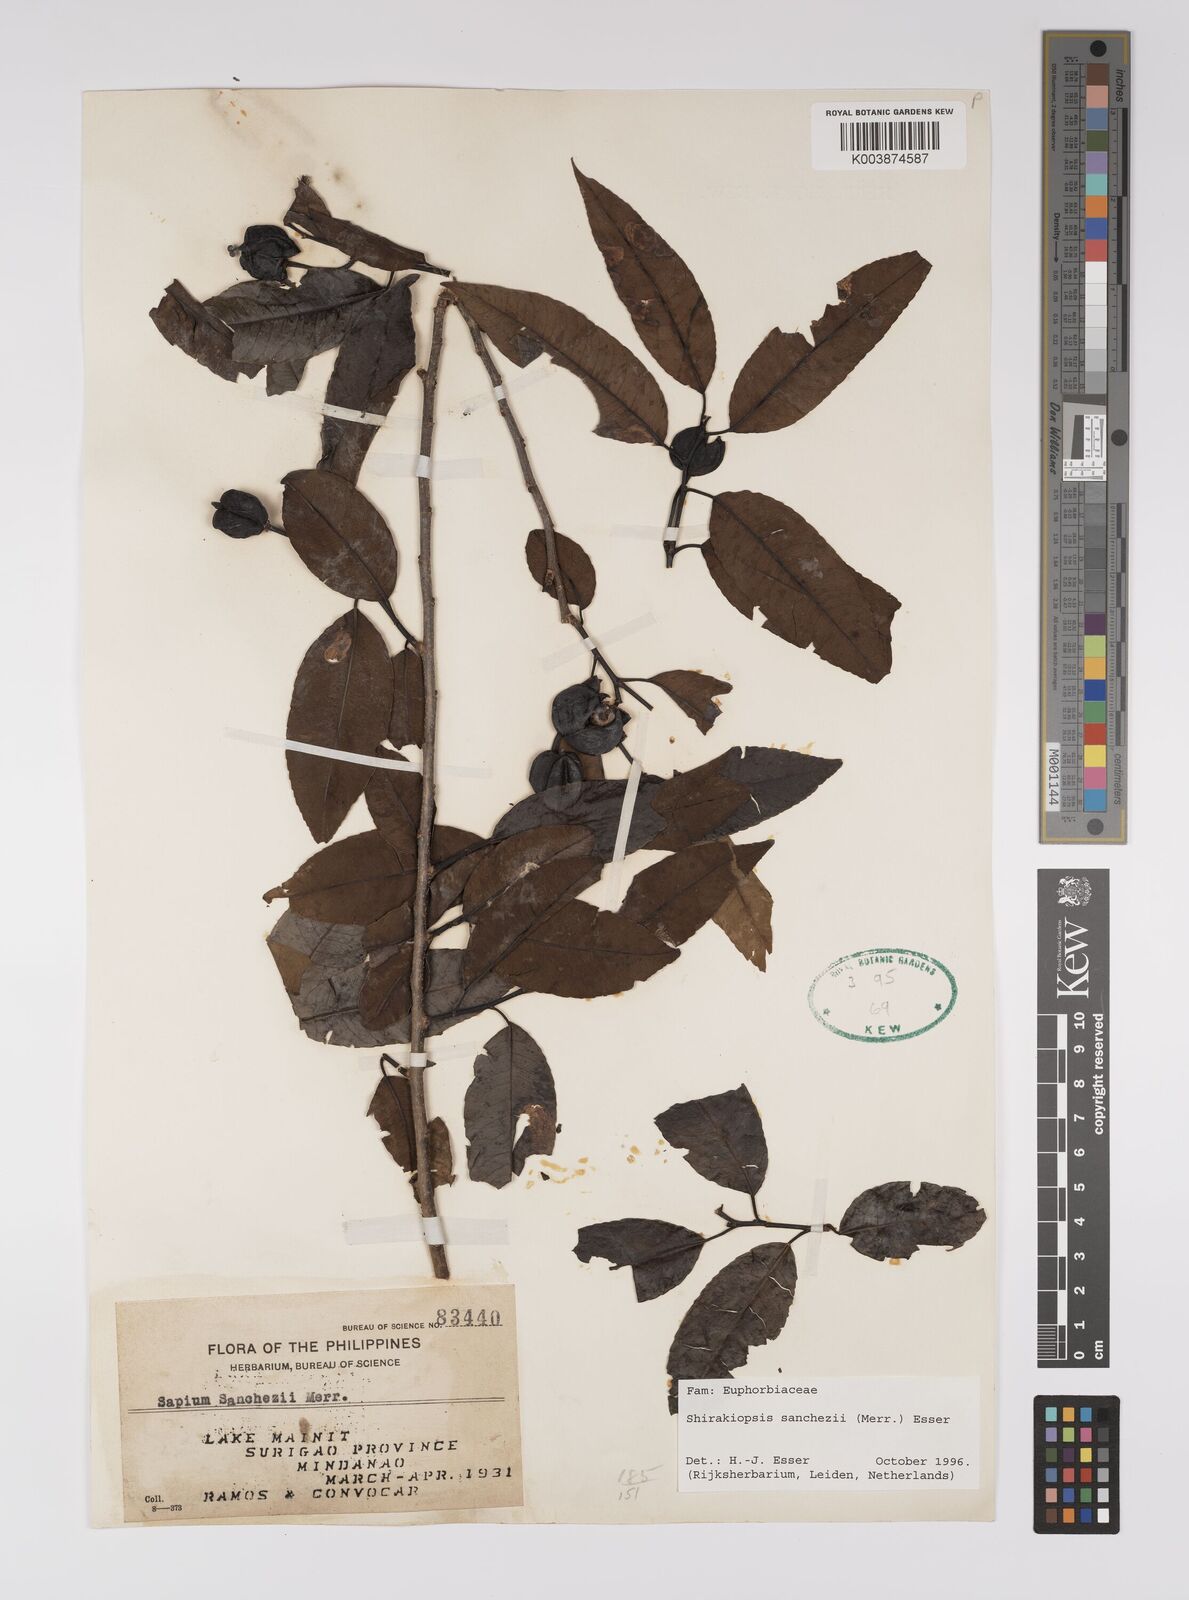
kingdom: Plantae
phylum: Tracheophyta
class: Magnoliopsida
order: Malpighiales
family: Euphorbiaceae
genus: Shirakiopsis
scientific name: Shirakiopsis sanchezii
